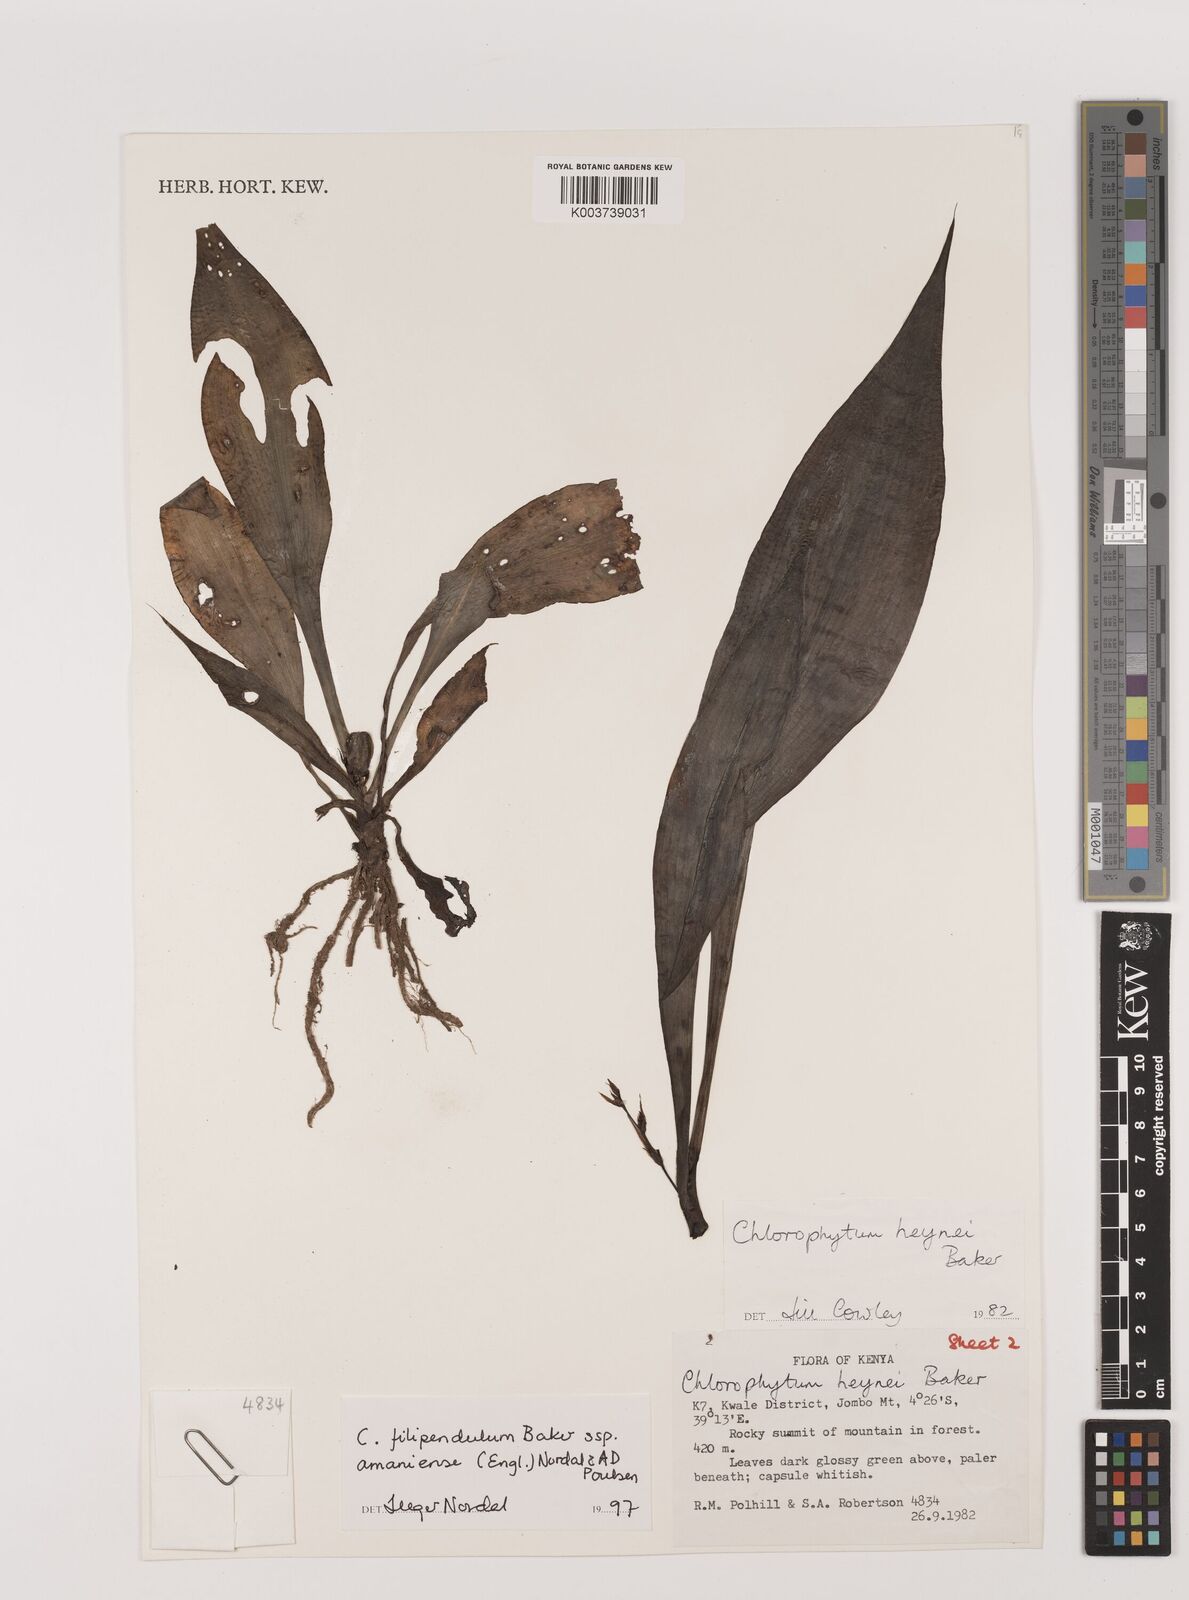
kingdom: Plantae
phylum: Tracheophyta
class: Liliopsida
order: Asparagales
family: Asparagaceae
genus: Chlorophytum
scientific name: Chlorophytum filipendulum
